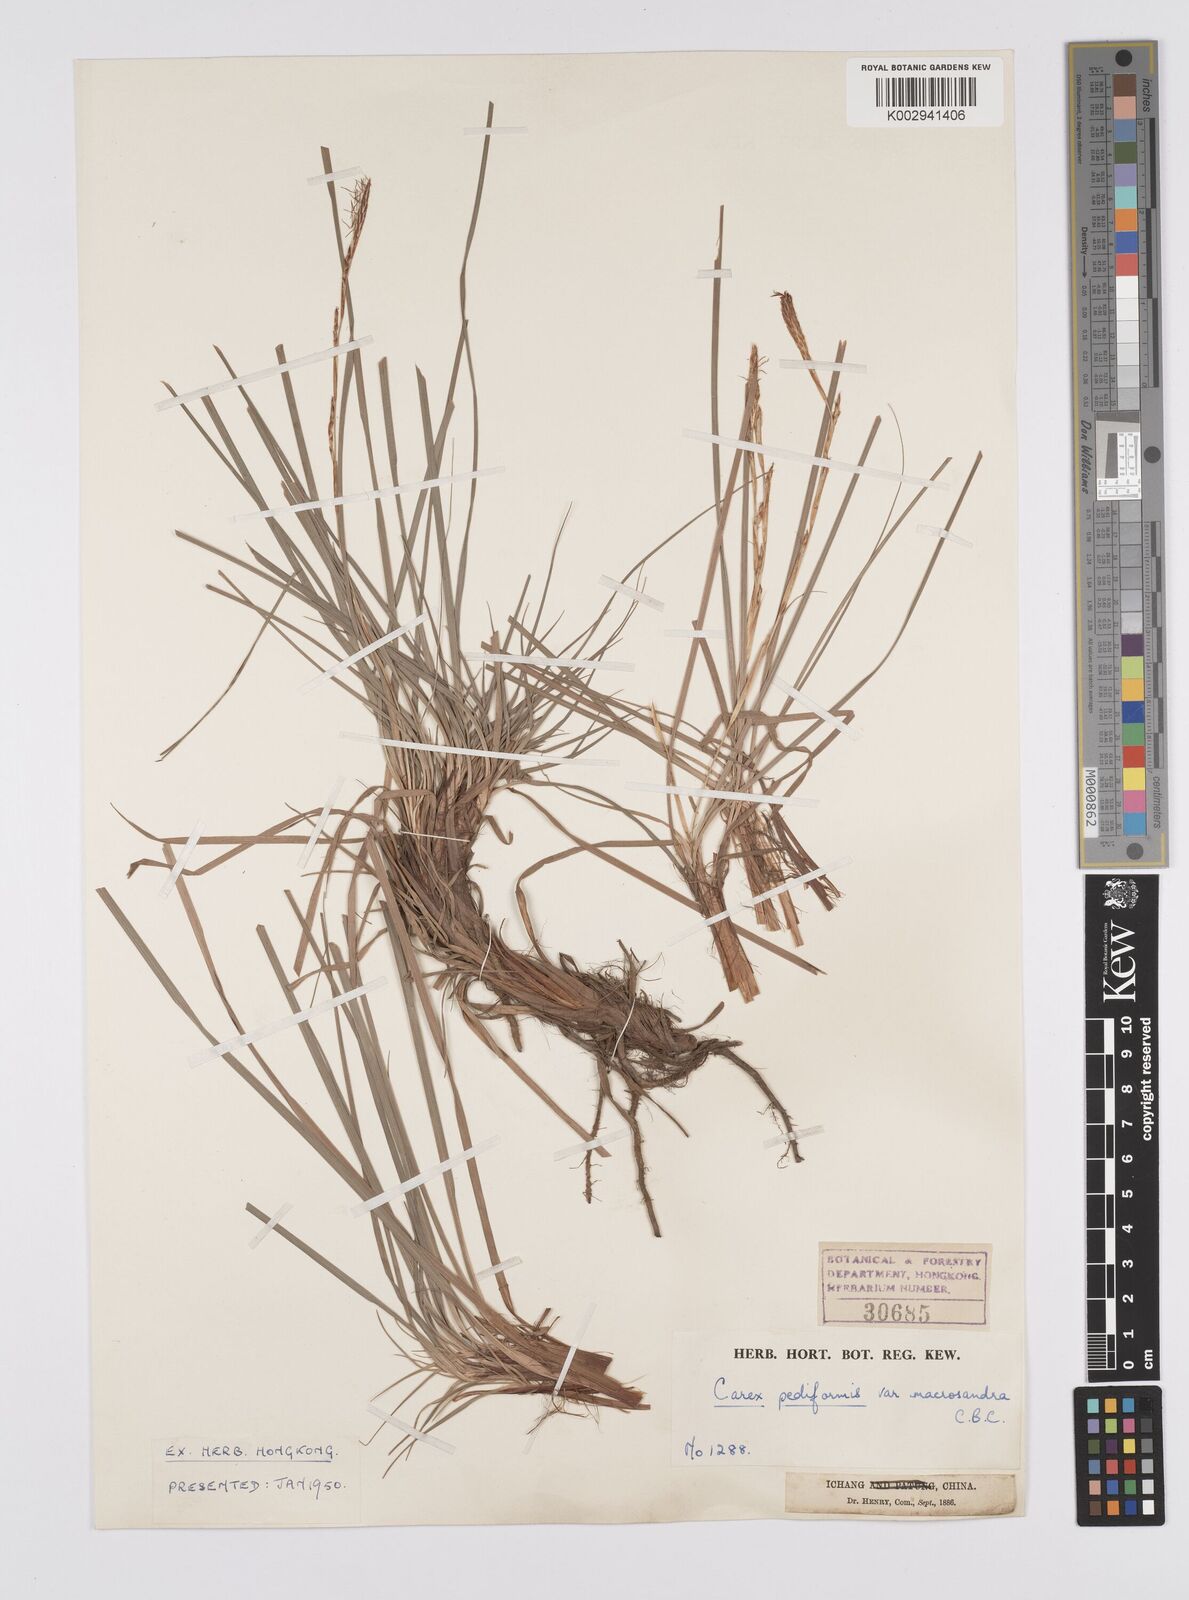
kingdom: Plantae
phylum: Tracheophyta
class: Liliopsida
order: Poales
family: Cyperaceae
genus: Carex
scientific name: Carex pediformis
